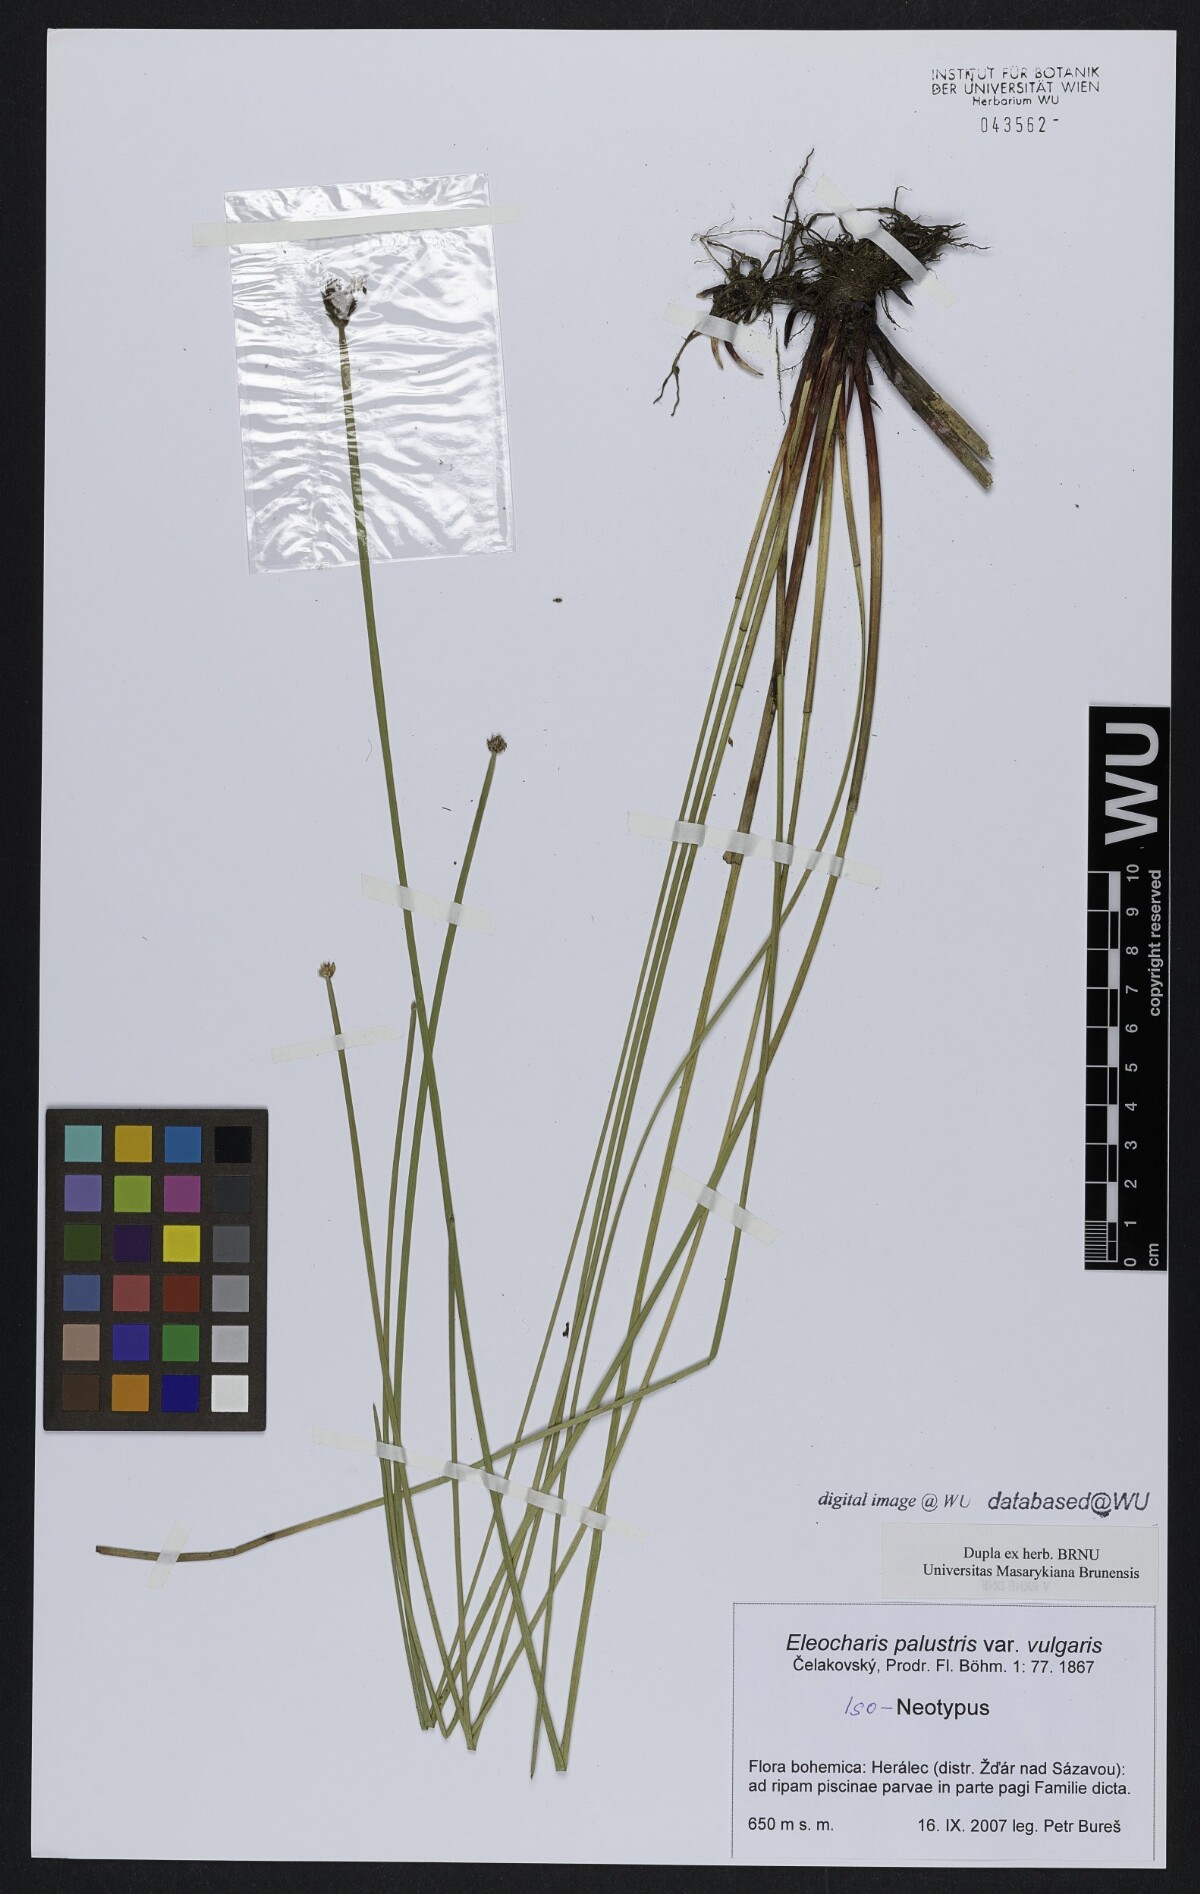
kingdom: Plantae
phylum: Tracheophyta
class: Liliopsida
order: Poales
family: Cyperaceae
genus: Eleocharis
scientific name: Eleocharis palustris
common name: Common spike-rush
